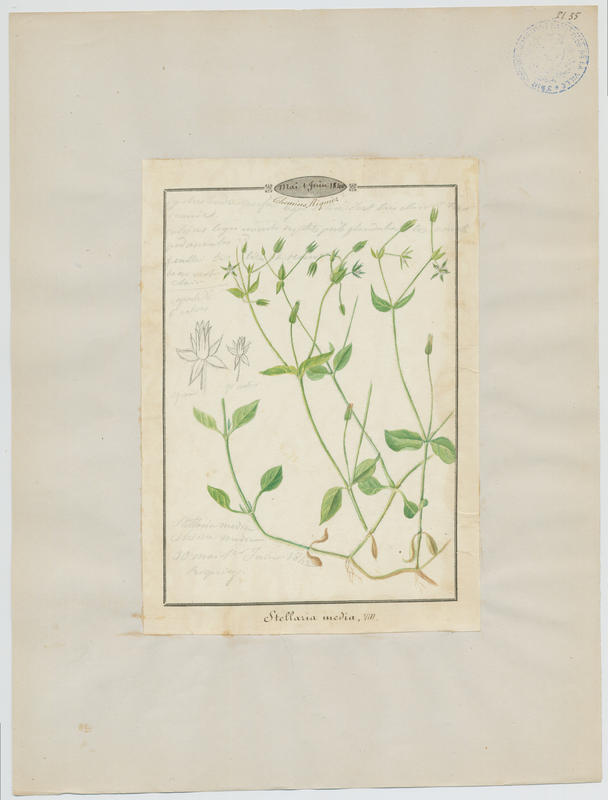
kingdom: Plantae
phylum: Tracheophyta
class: Magnoliopsida
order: Caryophyllales
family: Caryophyllaceae
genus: Stellaria
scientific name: Stellaria media
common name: Common chickweed
